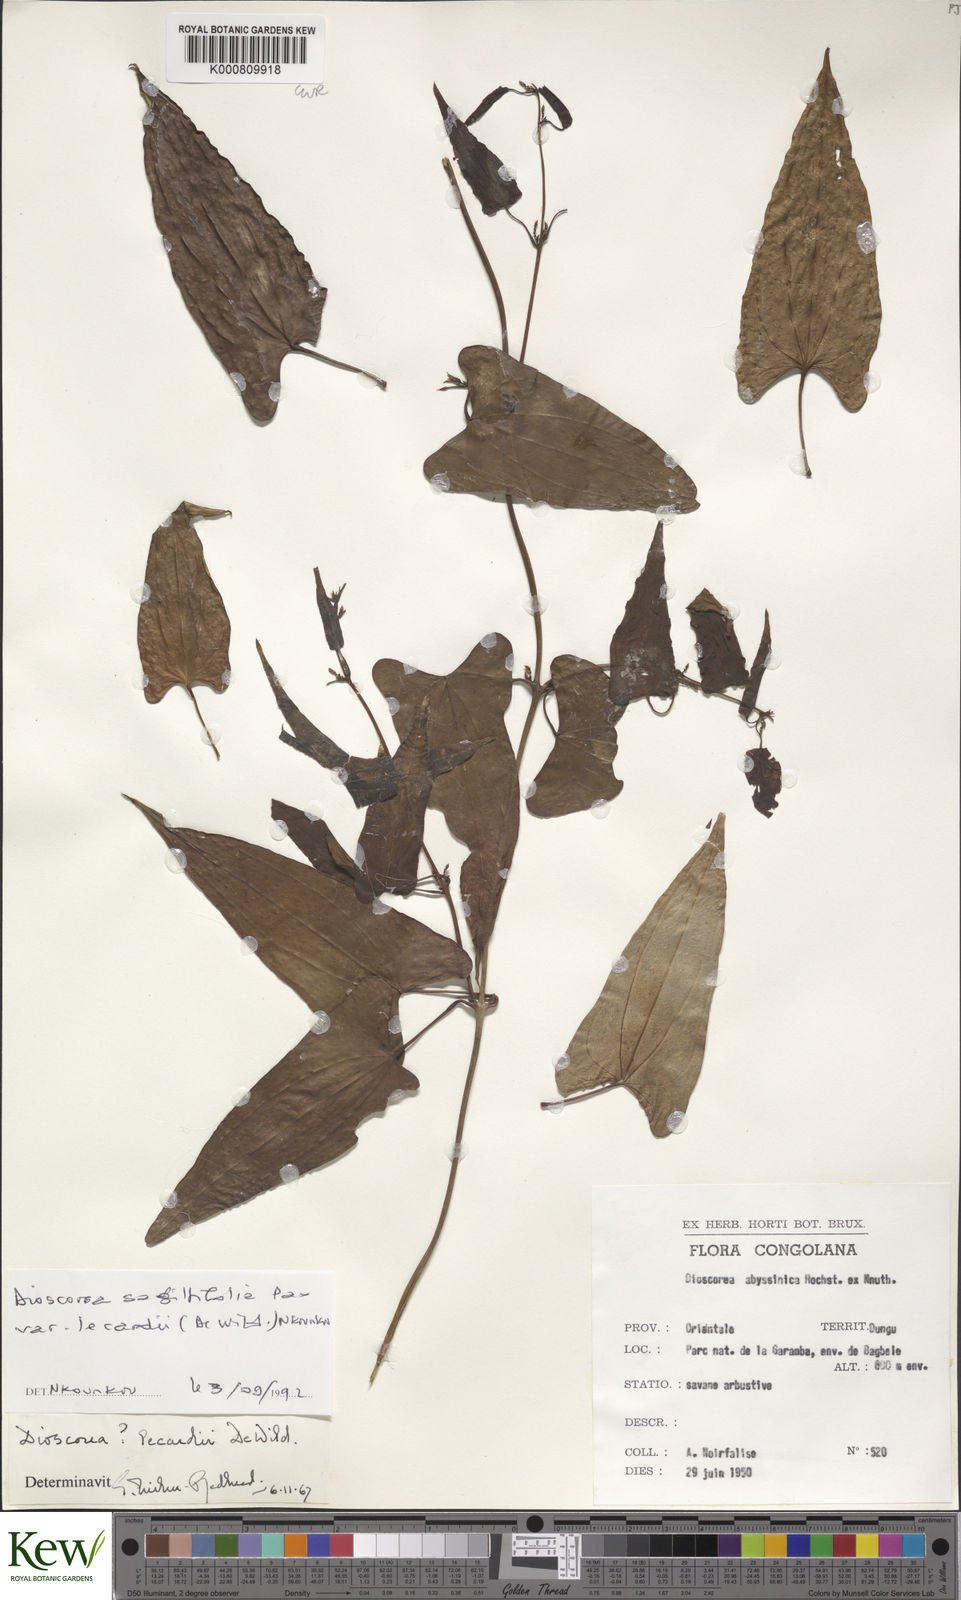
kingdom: Plantae
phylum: Tracheophyta
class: Liliopsida
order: Dioscoreales
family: Dioscoreaceae
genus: Dioscorea
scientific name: Dioscorea sagittifolia
